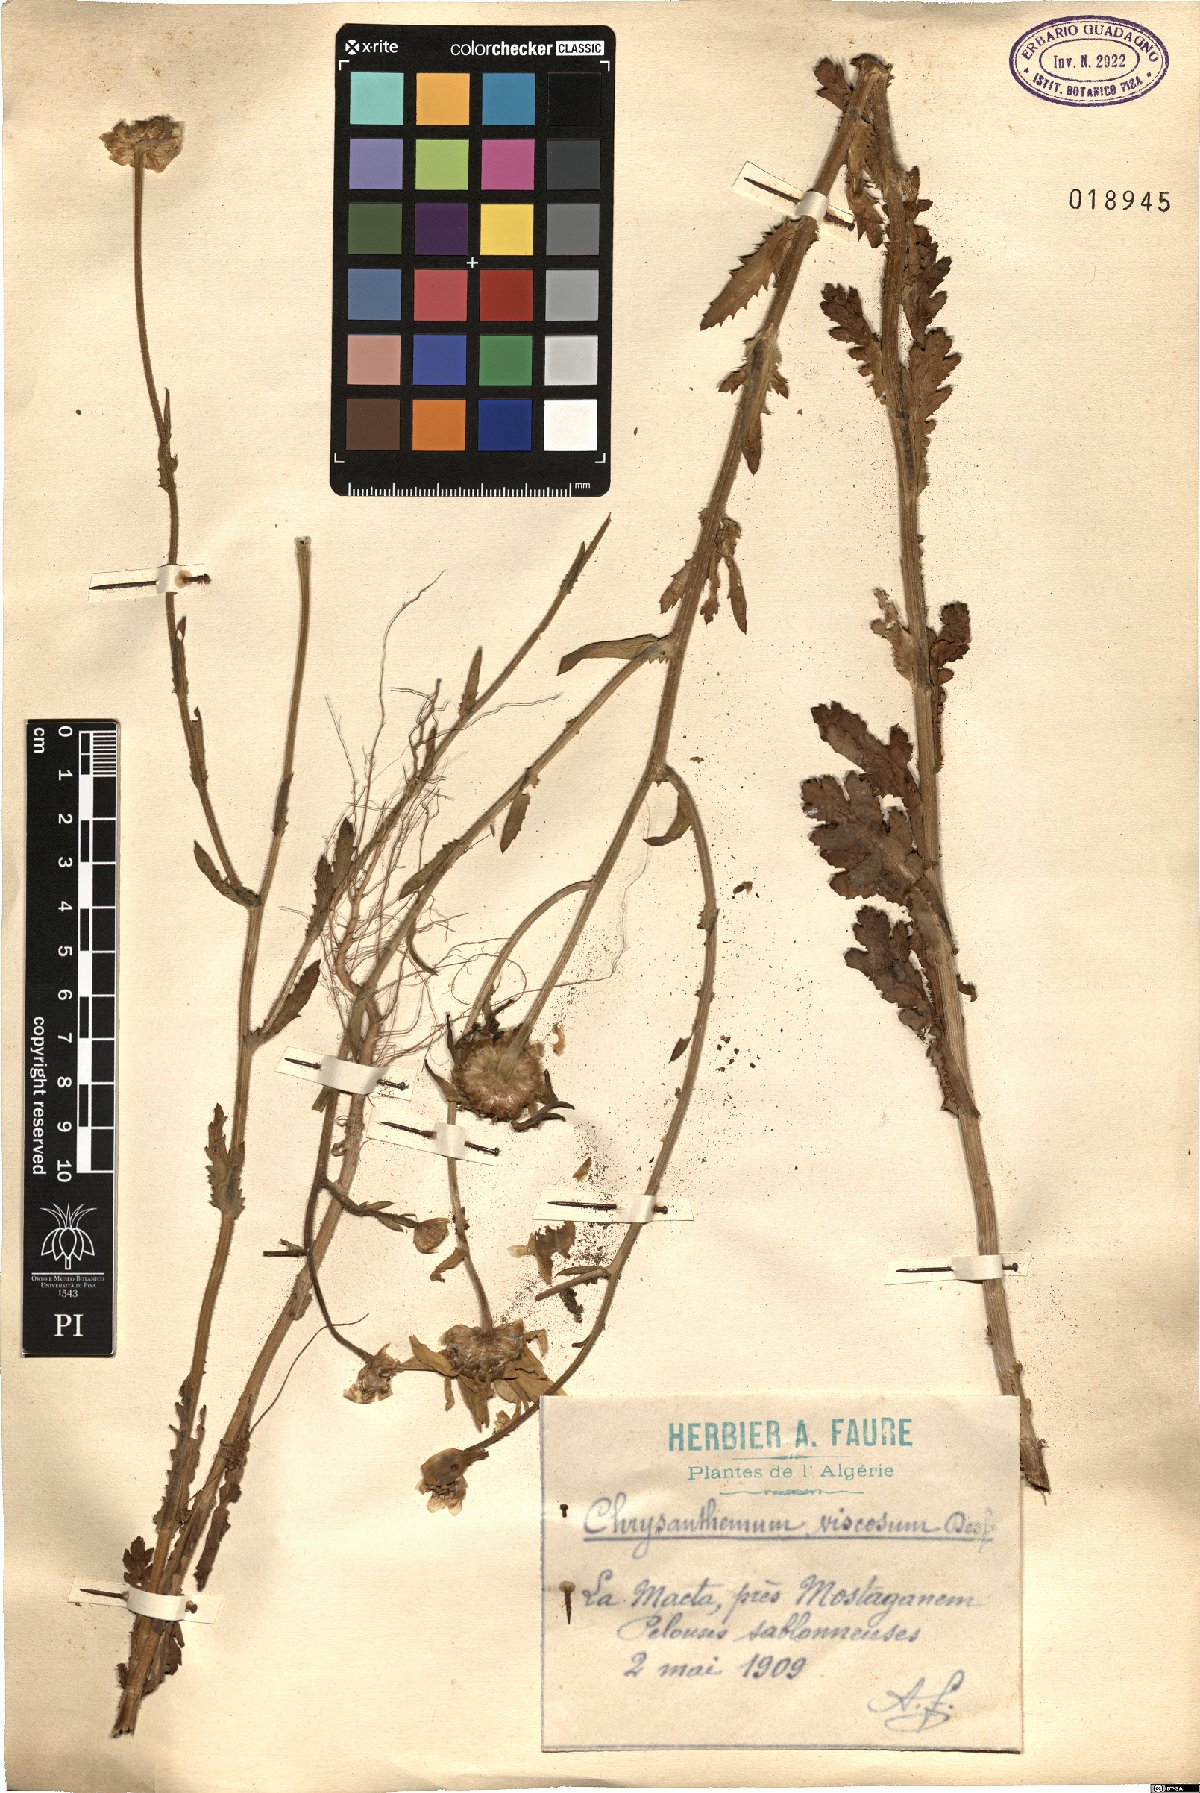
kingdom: Plantae
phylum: Tracheophyta
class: Magnoliopsida
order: Asterales
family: Asteraceae
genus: Heteranthemis
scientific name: Heteranthemis viscidehirta
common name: Sticky oxeye
